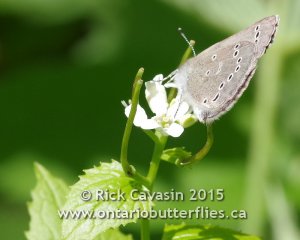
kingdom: Animalia
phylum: Arthropoda
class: Insecta
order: Lepidoptera
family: Lycaenidae
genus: Glaucopsyche
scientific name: Glaucopsyche lygdamus
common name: Silvery Blue
